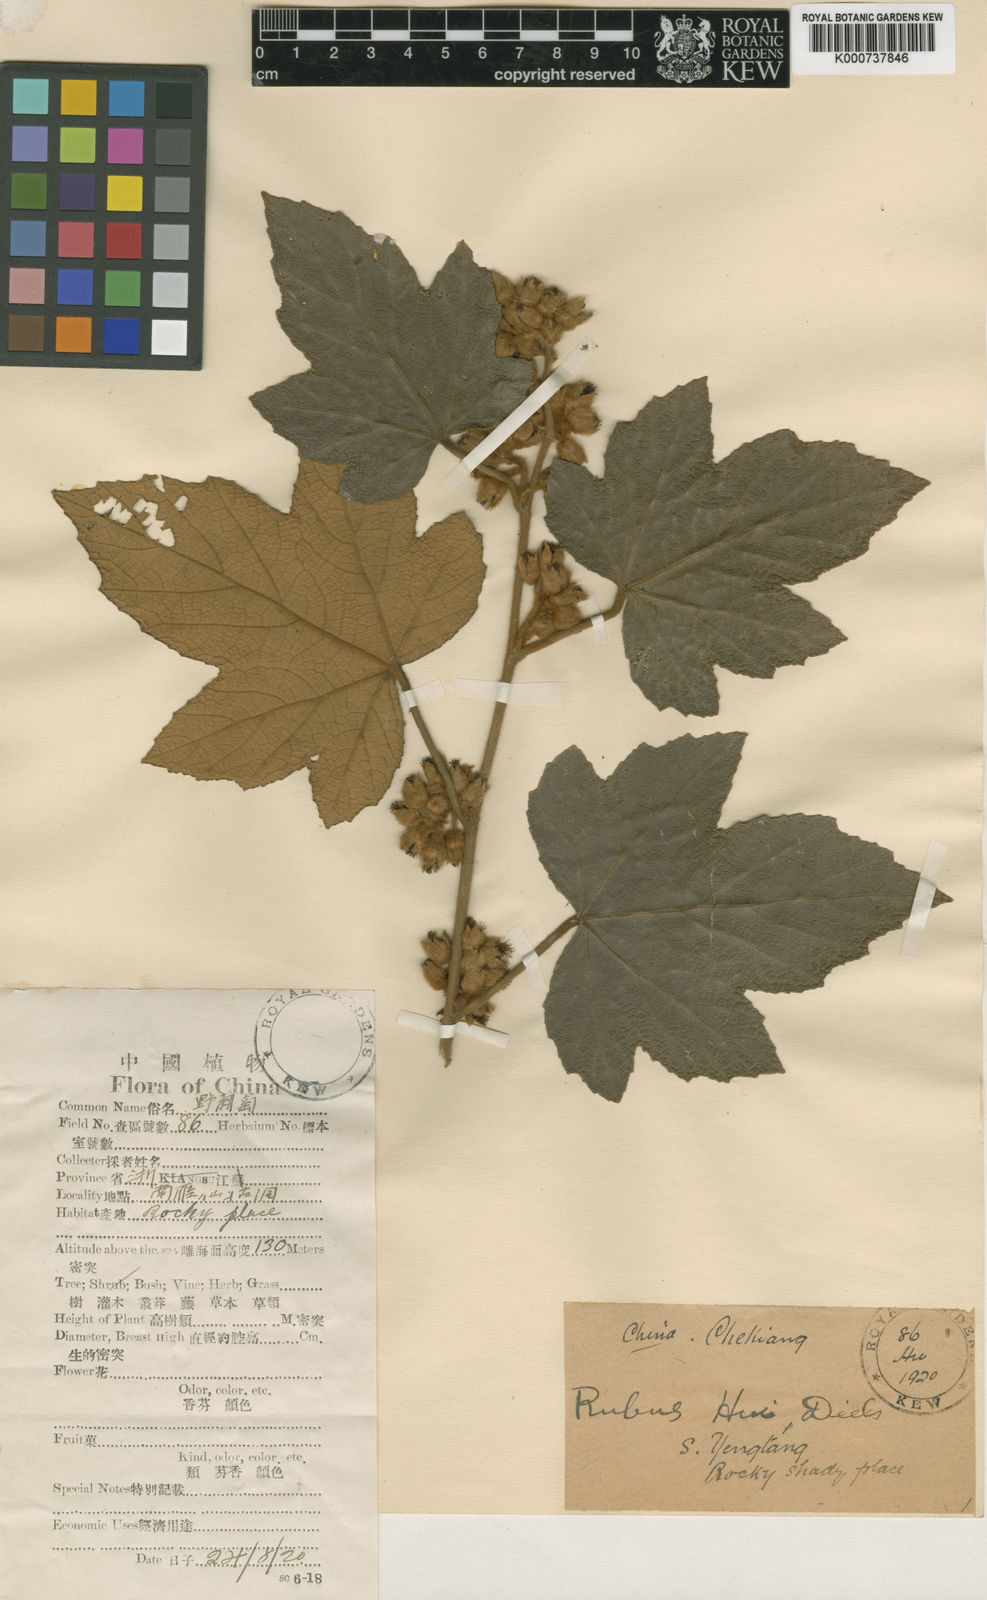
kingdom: Plantae
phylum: Tracheophyta
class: Magnoliopsida
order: Rosales
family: Rosaceae
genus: Rubus
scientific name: Rubus
